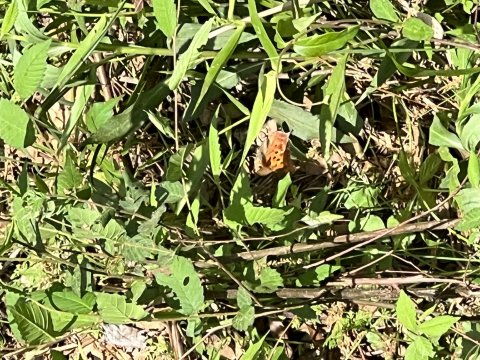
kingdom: Animalia
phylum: Arthropoda
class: Insecta
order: Lepidoptera
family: Nymphalidae
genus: Polygonia
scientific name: Polygonia interrogationis
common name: Question Mark
